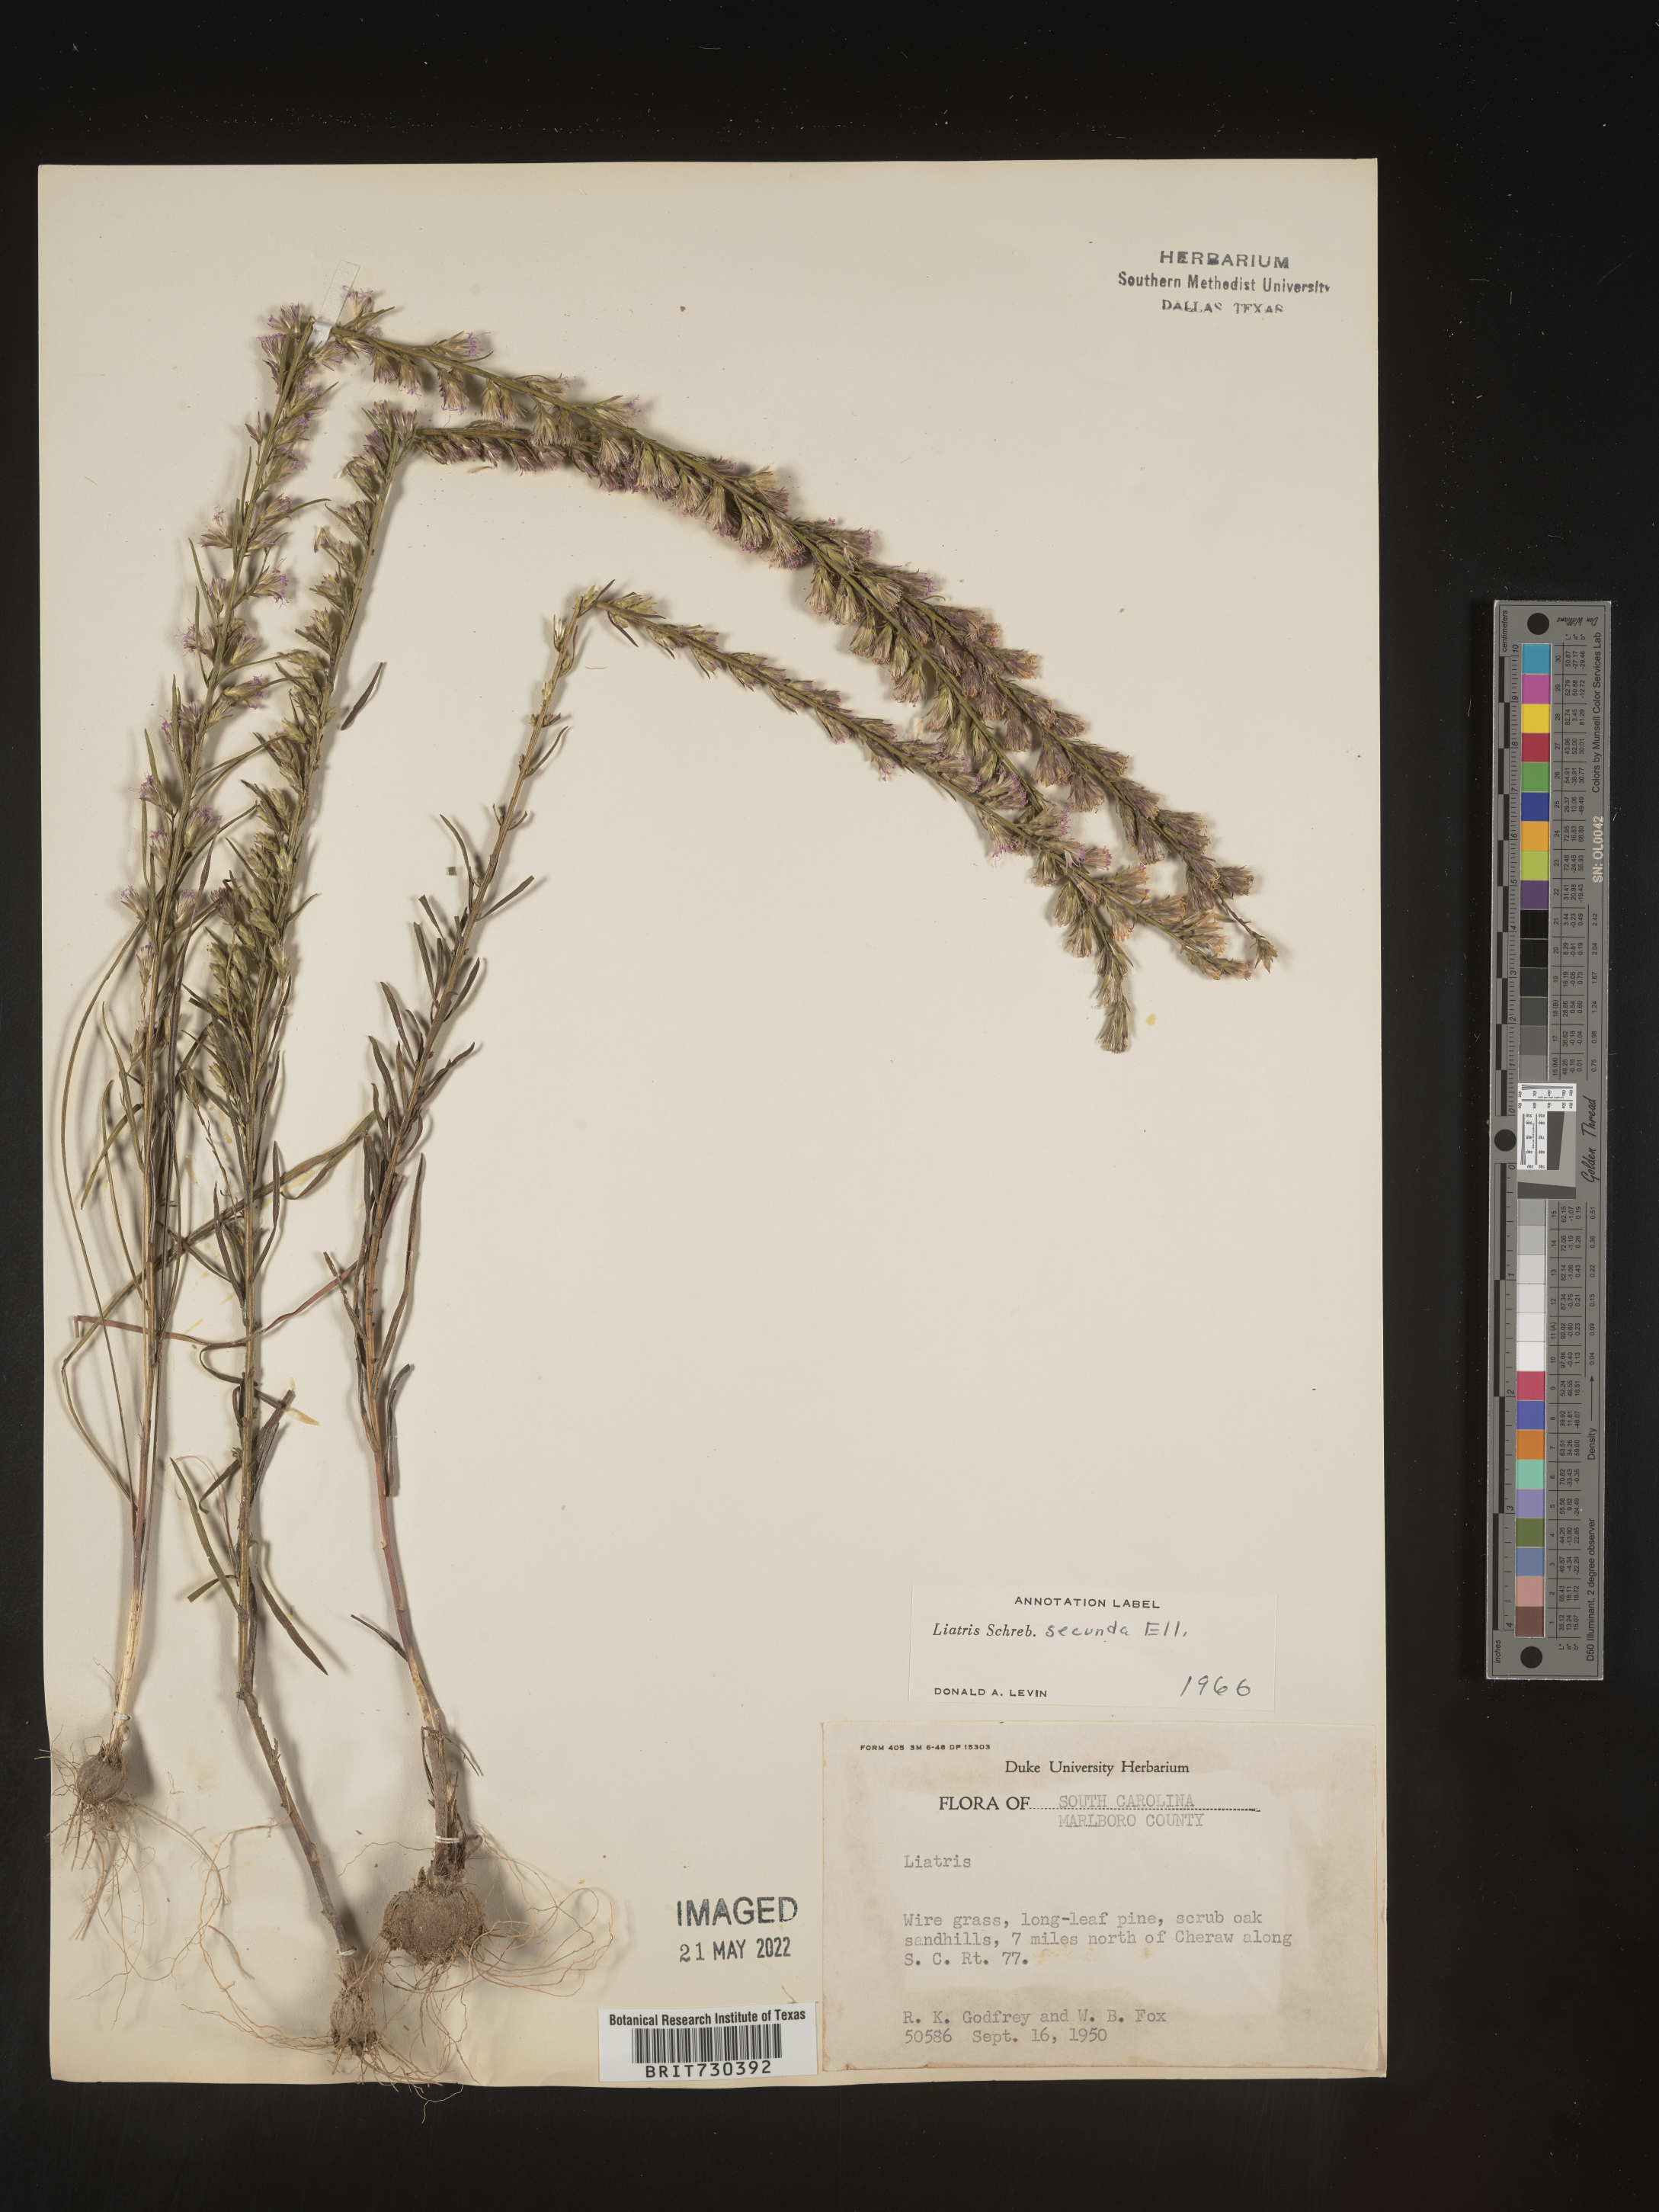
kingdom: Plantae
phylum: Tracheophyta
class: Magnoliopsida
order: Asterales
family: Asteraceae
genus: Liatris
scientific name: Liatris cokeri
